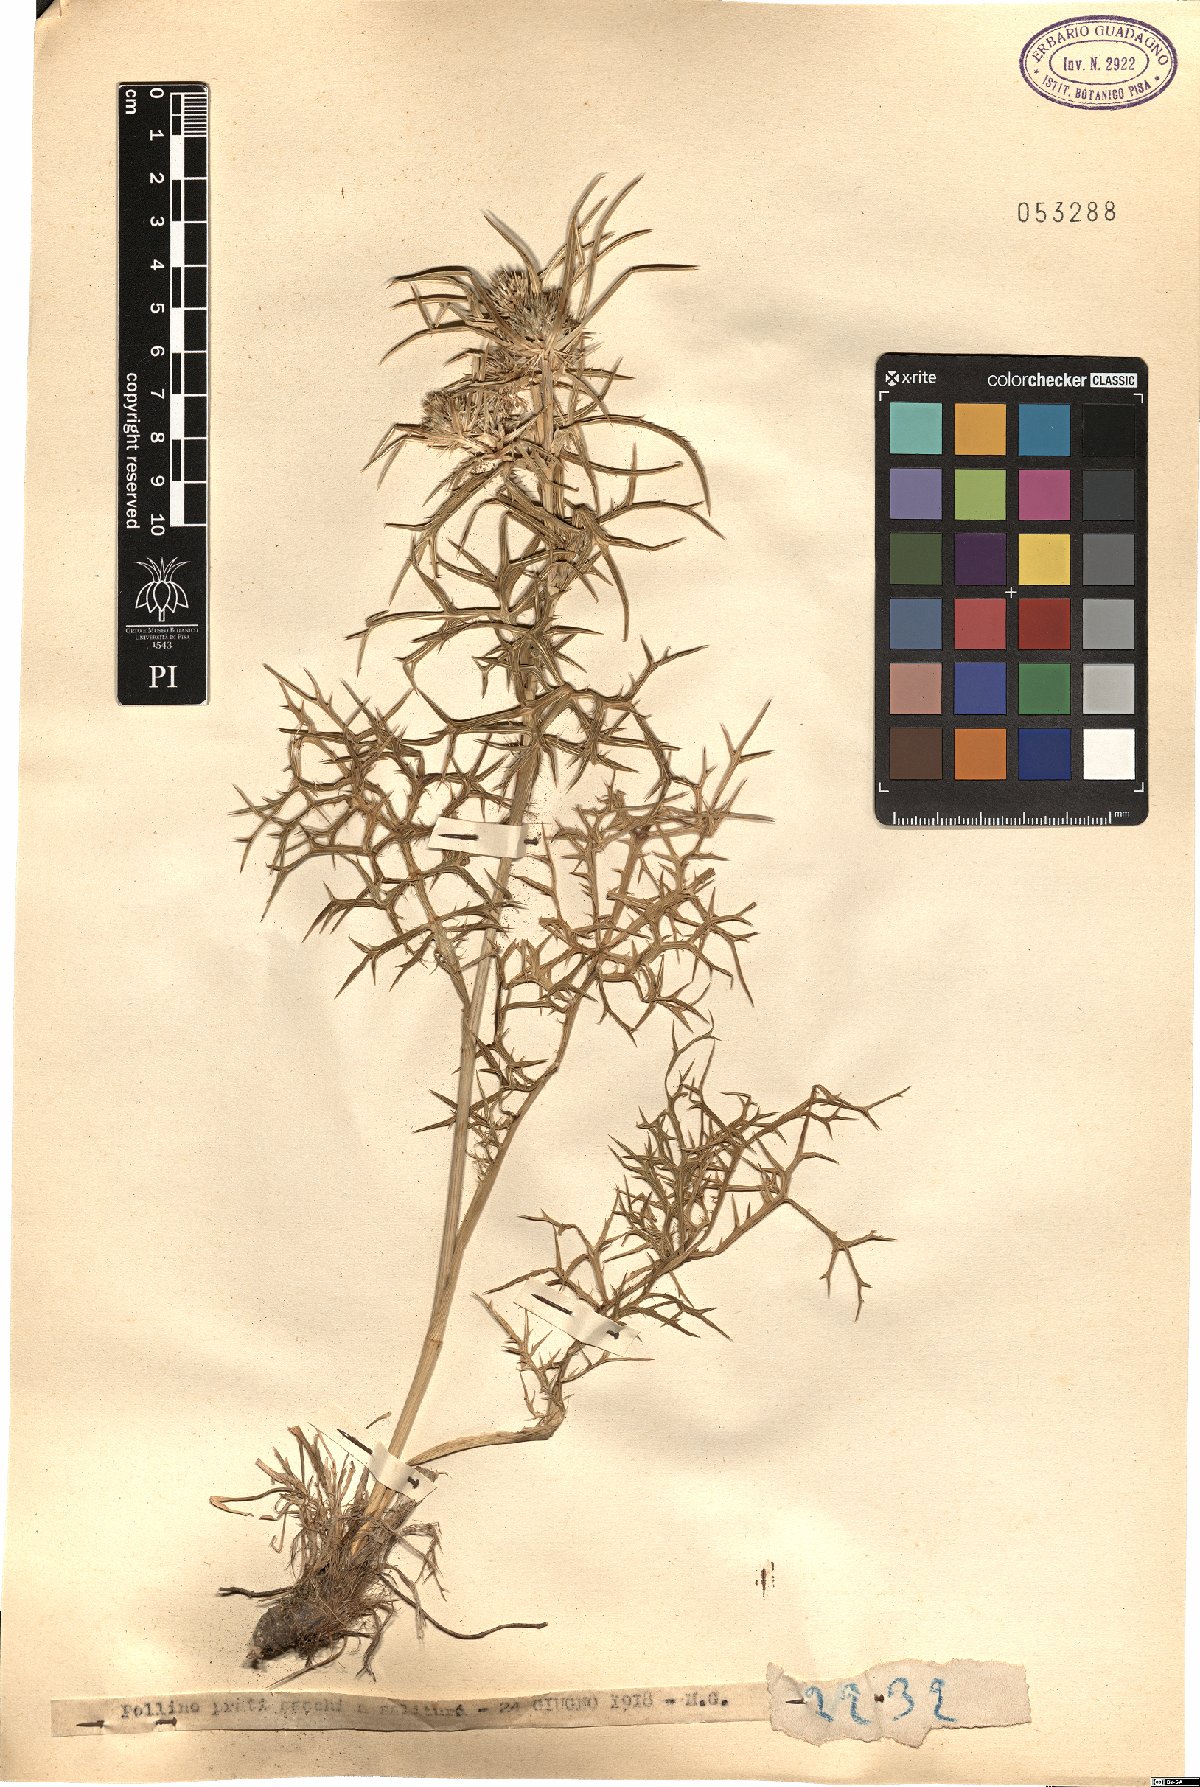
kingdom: Plantae
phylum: Tracheophyta
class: Magnoliopsida
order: Apiales
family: Apiaceae
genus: Eryngium
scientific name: Eryngium
